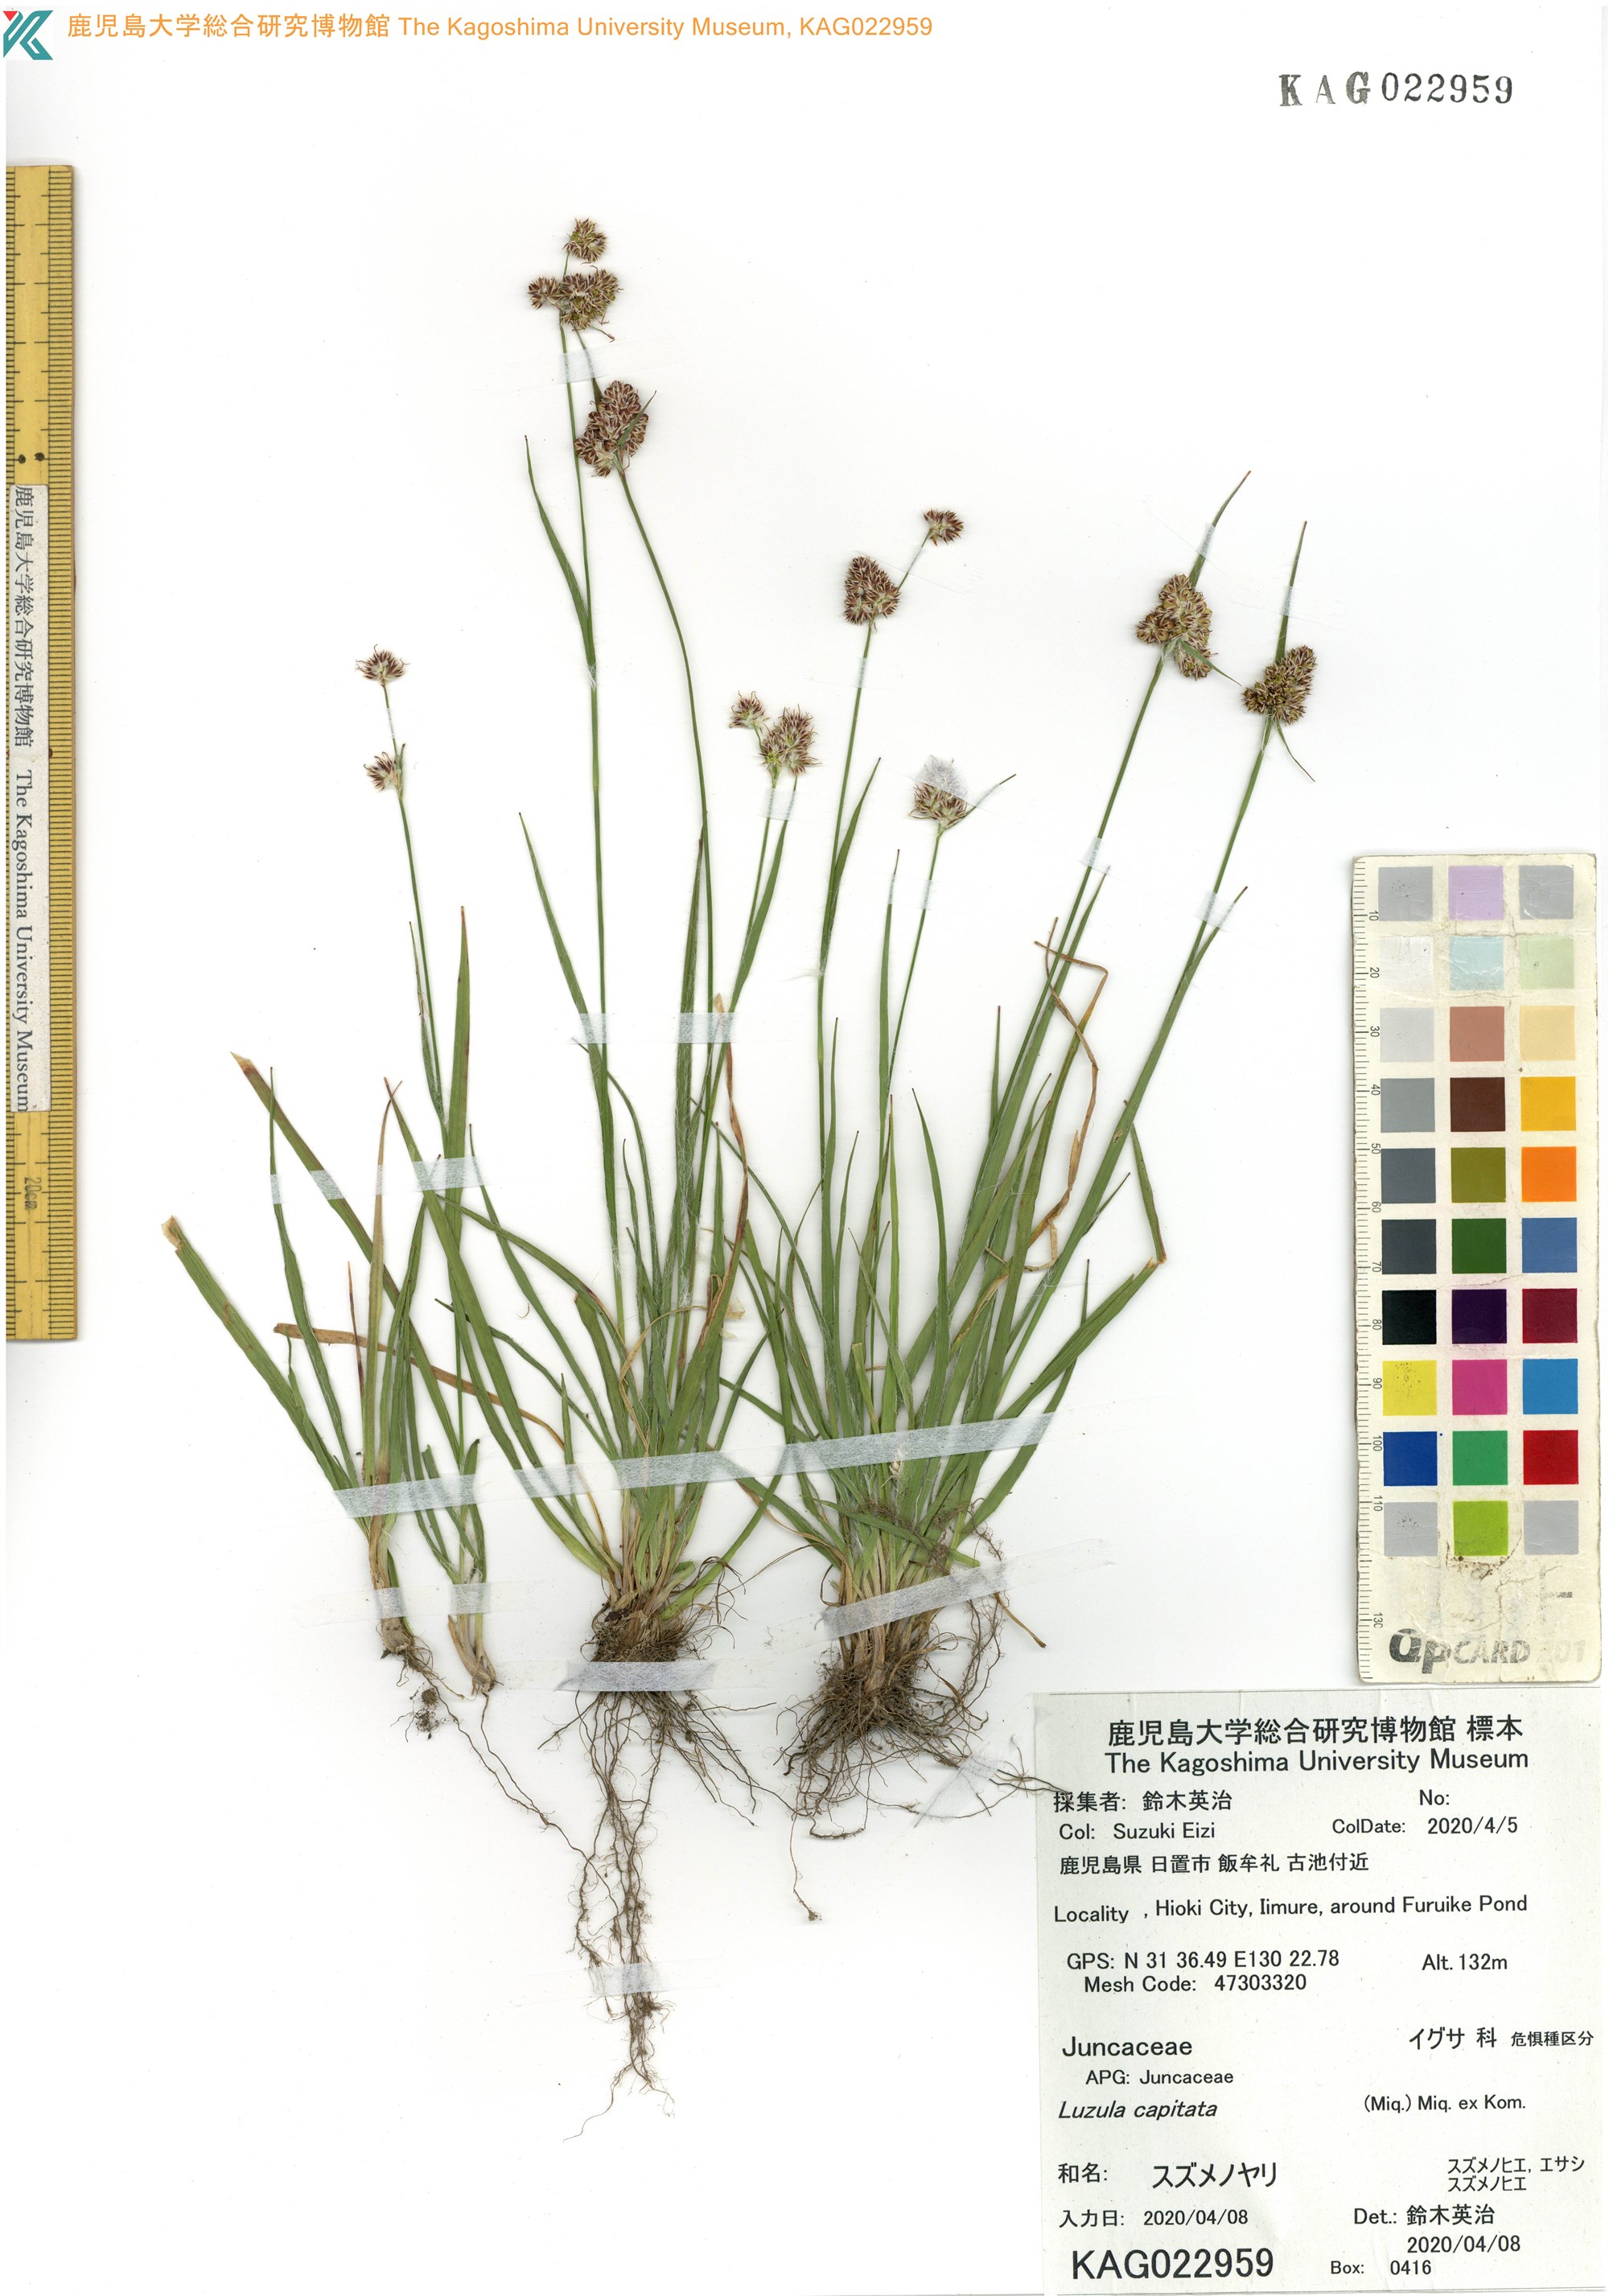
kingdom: Plantae
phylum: Tracheophyta
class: Liliopsida
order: Poales
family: Juncaceae
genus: Luzula
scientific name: Luzula capitata
